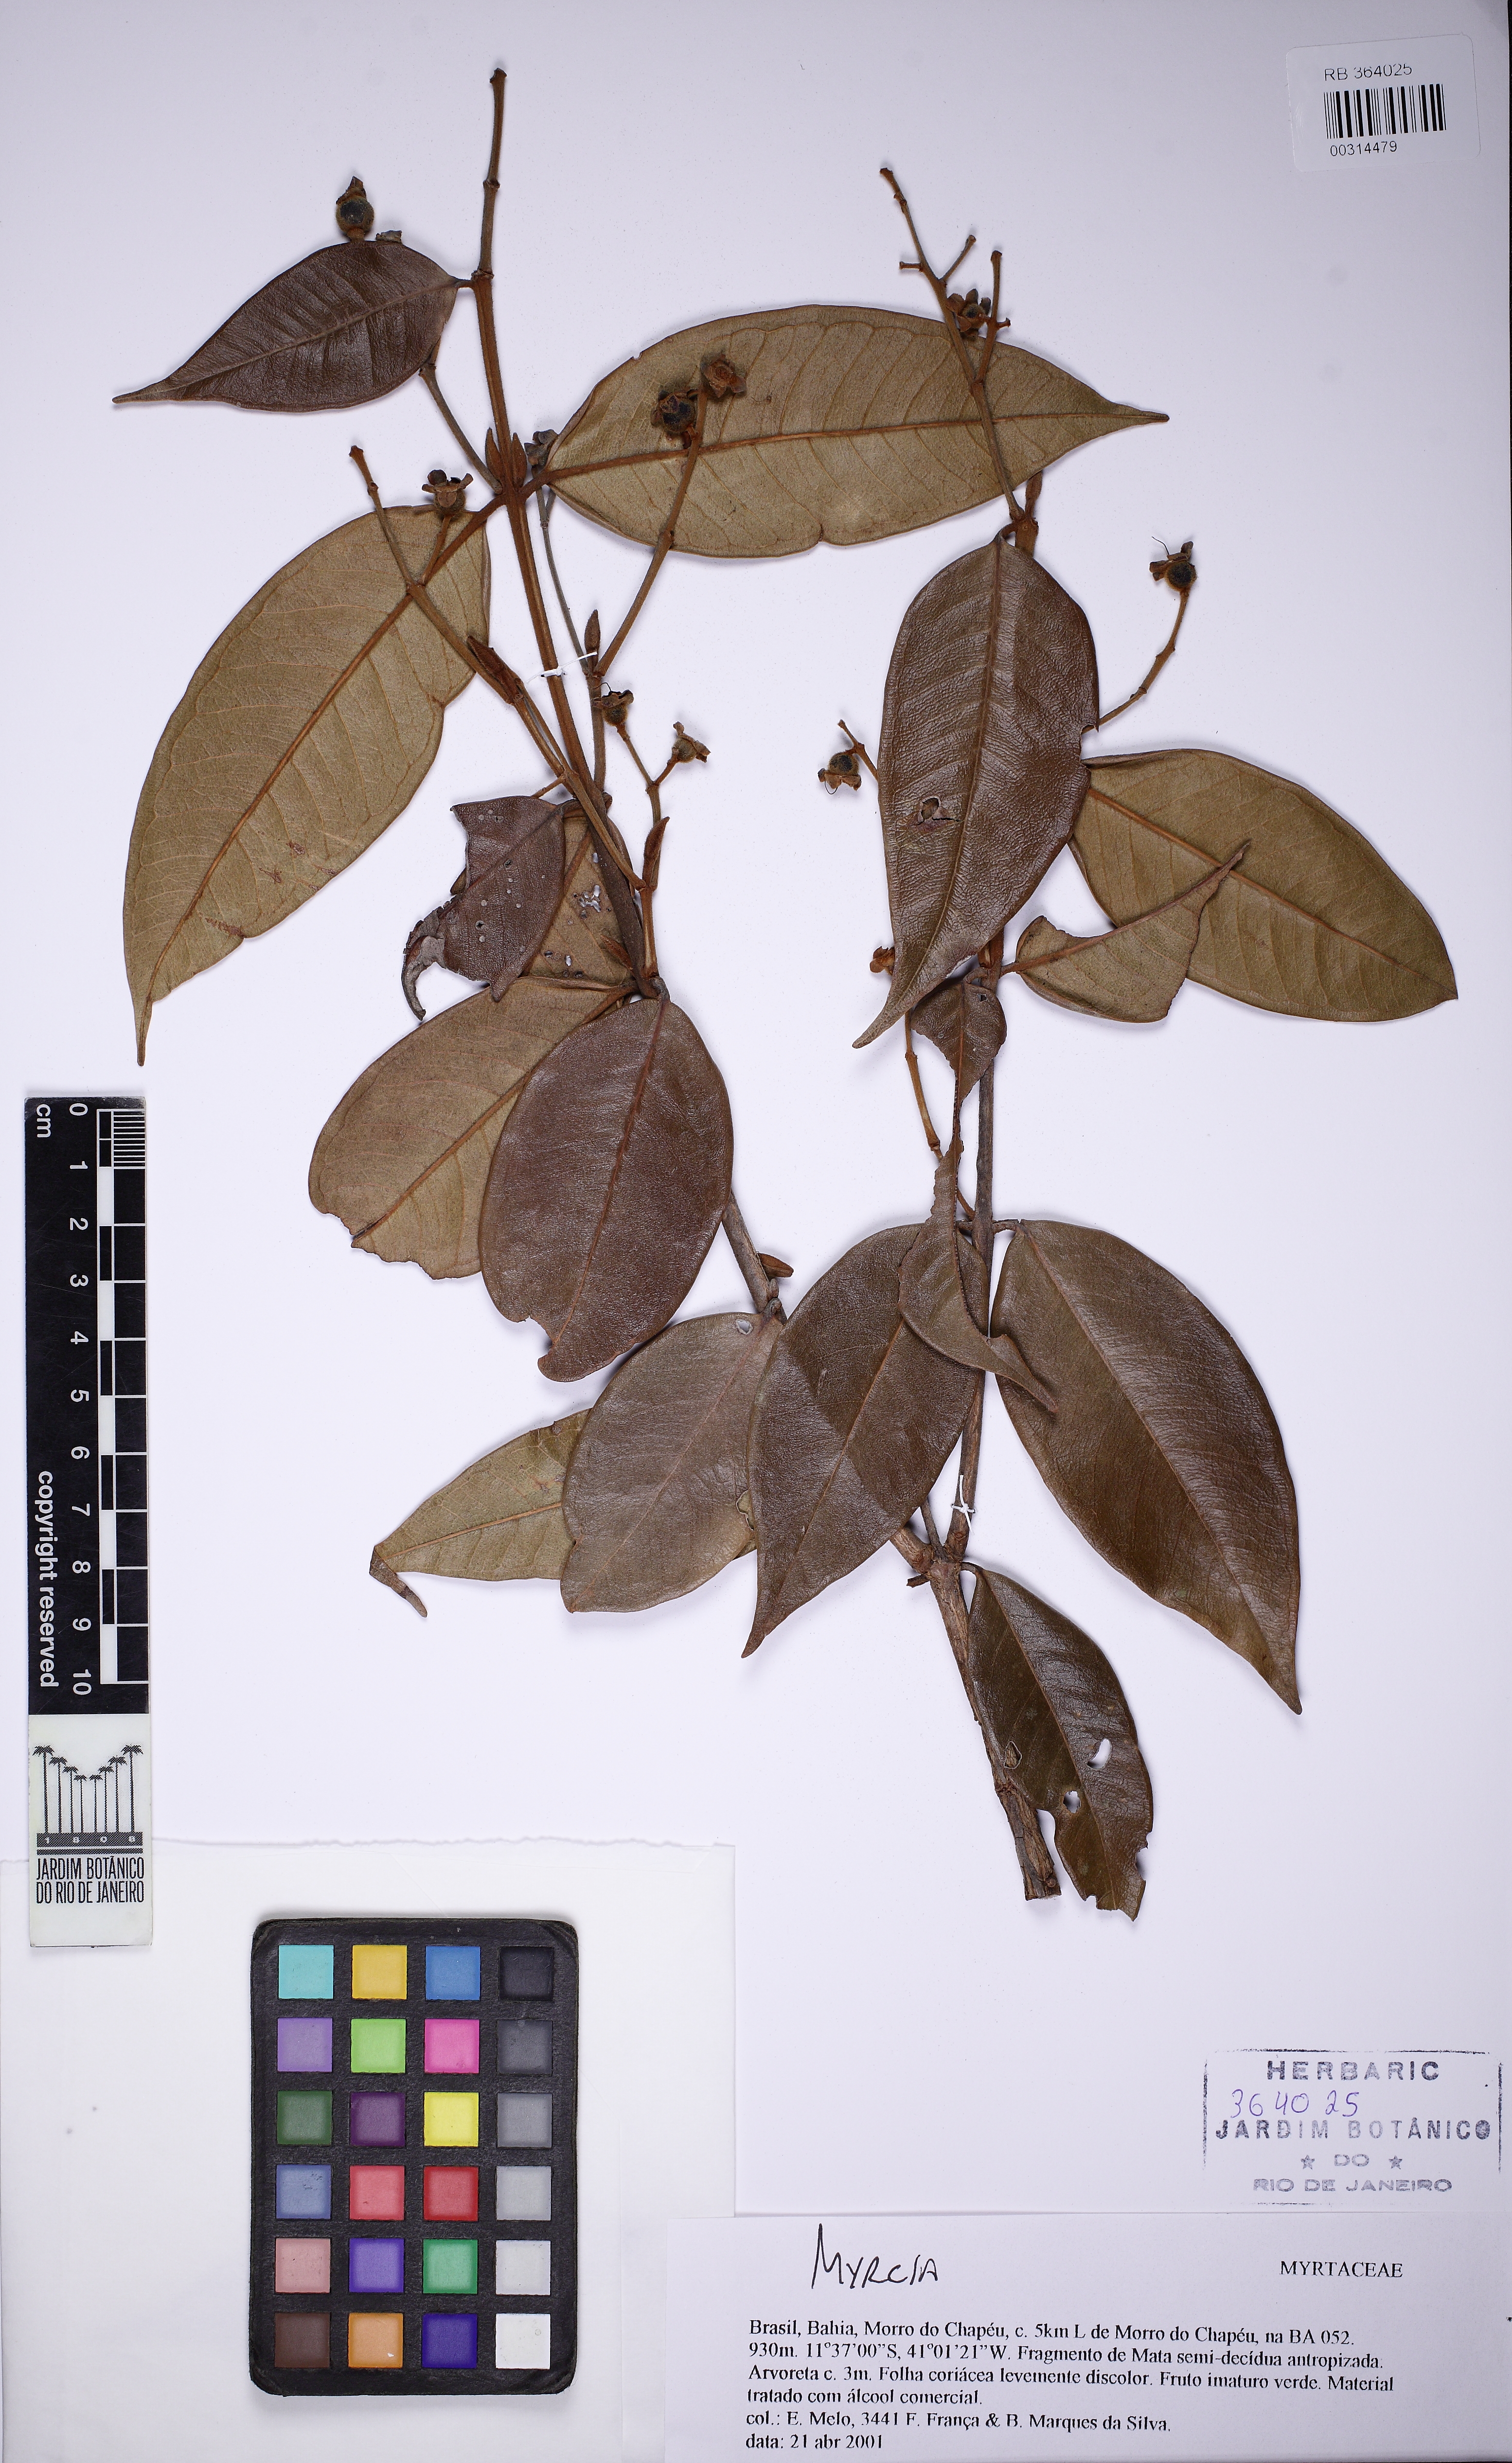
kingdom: Plantae
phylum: Tracheophyta
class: Magnoliopsida
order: Myrtales
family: Myrtaceae
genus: Myrcia
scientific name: Myrcia eximia
